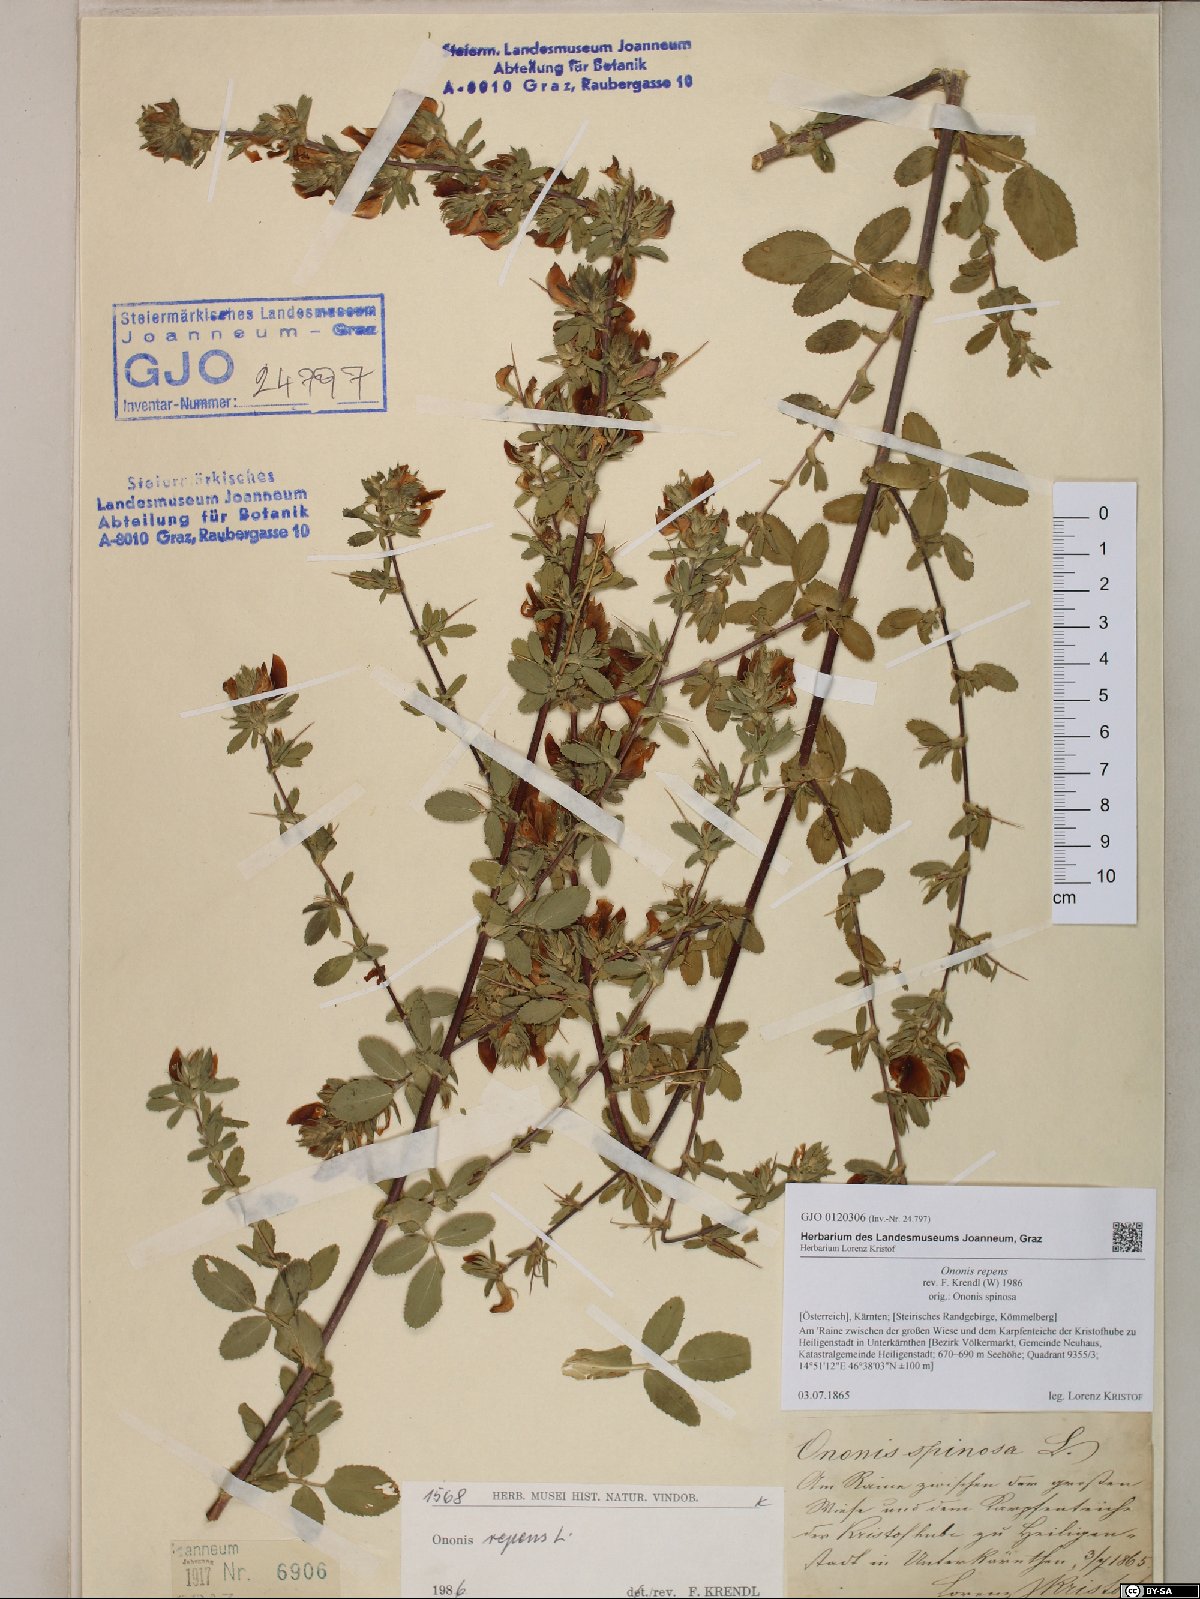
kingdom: Plantae
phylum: Tracheophyta
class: Magnoliopsida
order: Fabales
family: Fabaceae
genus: Ononis
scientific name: Ononis spinosa
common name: Spiny restharrow
